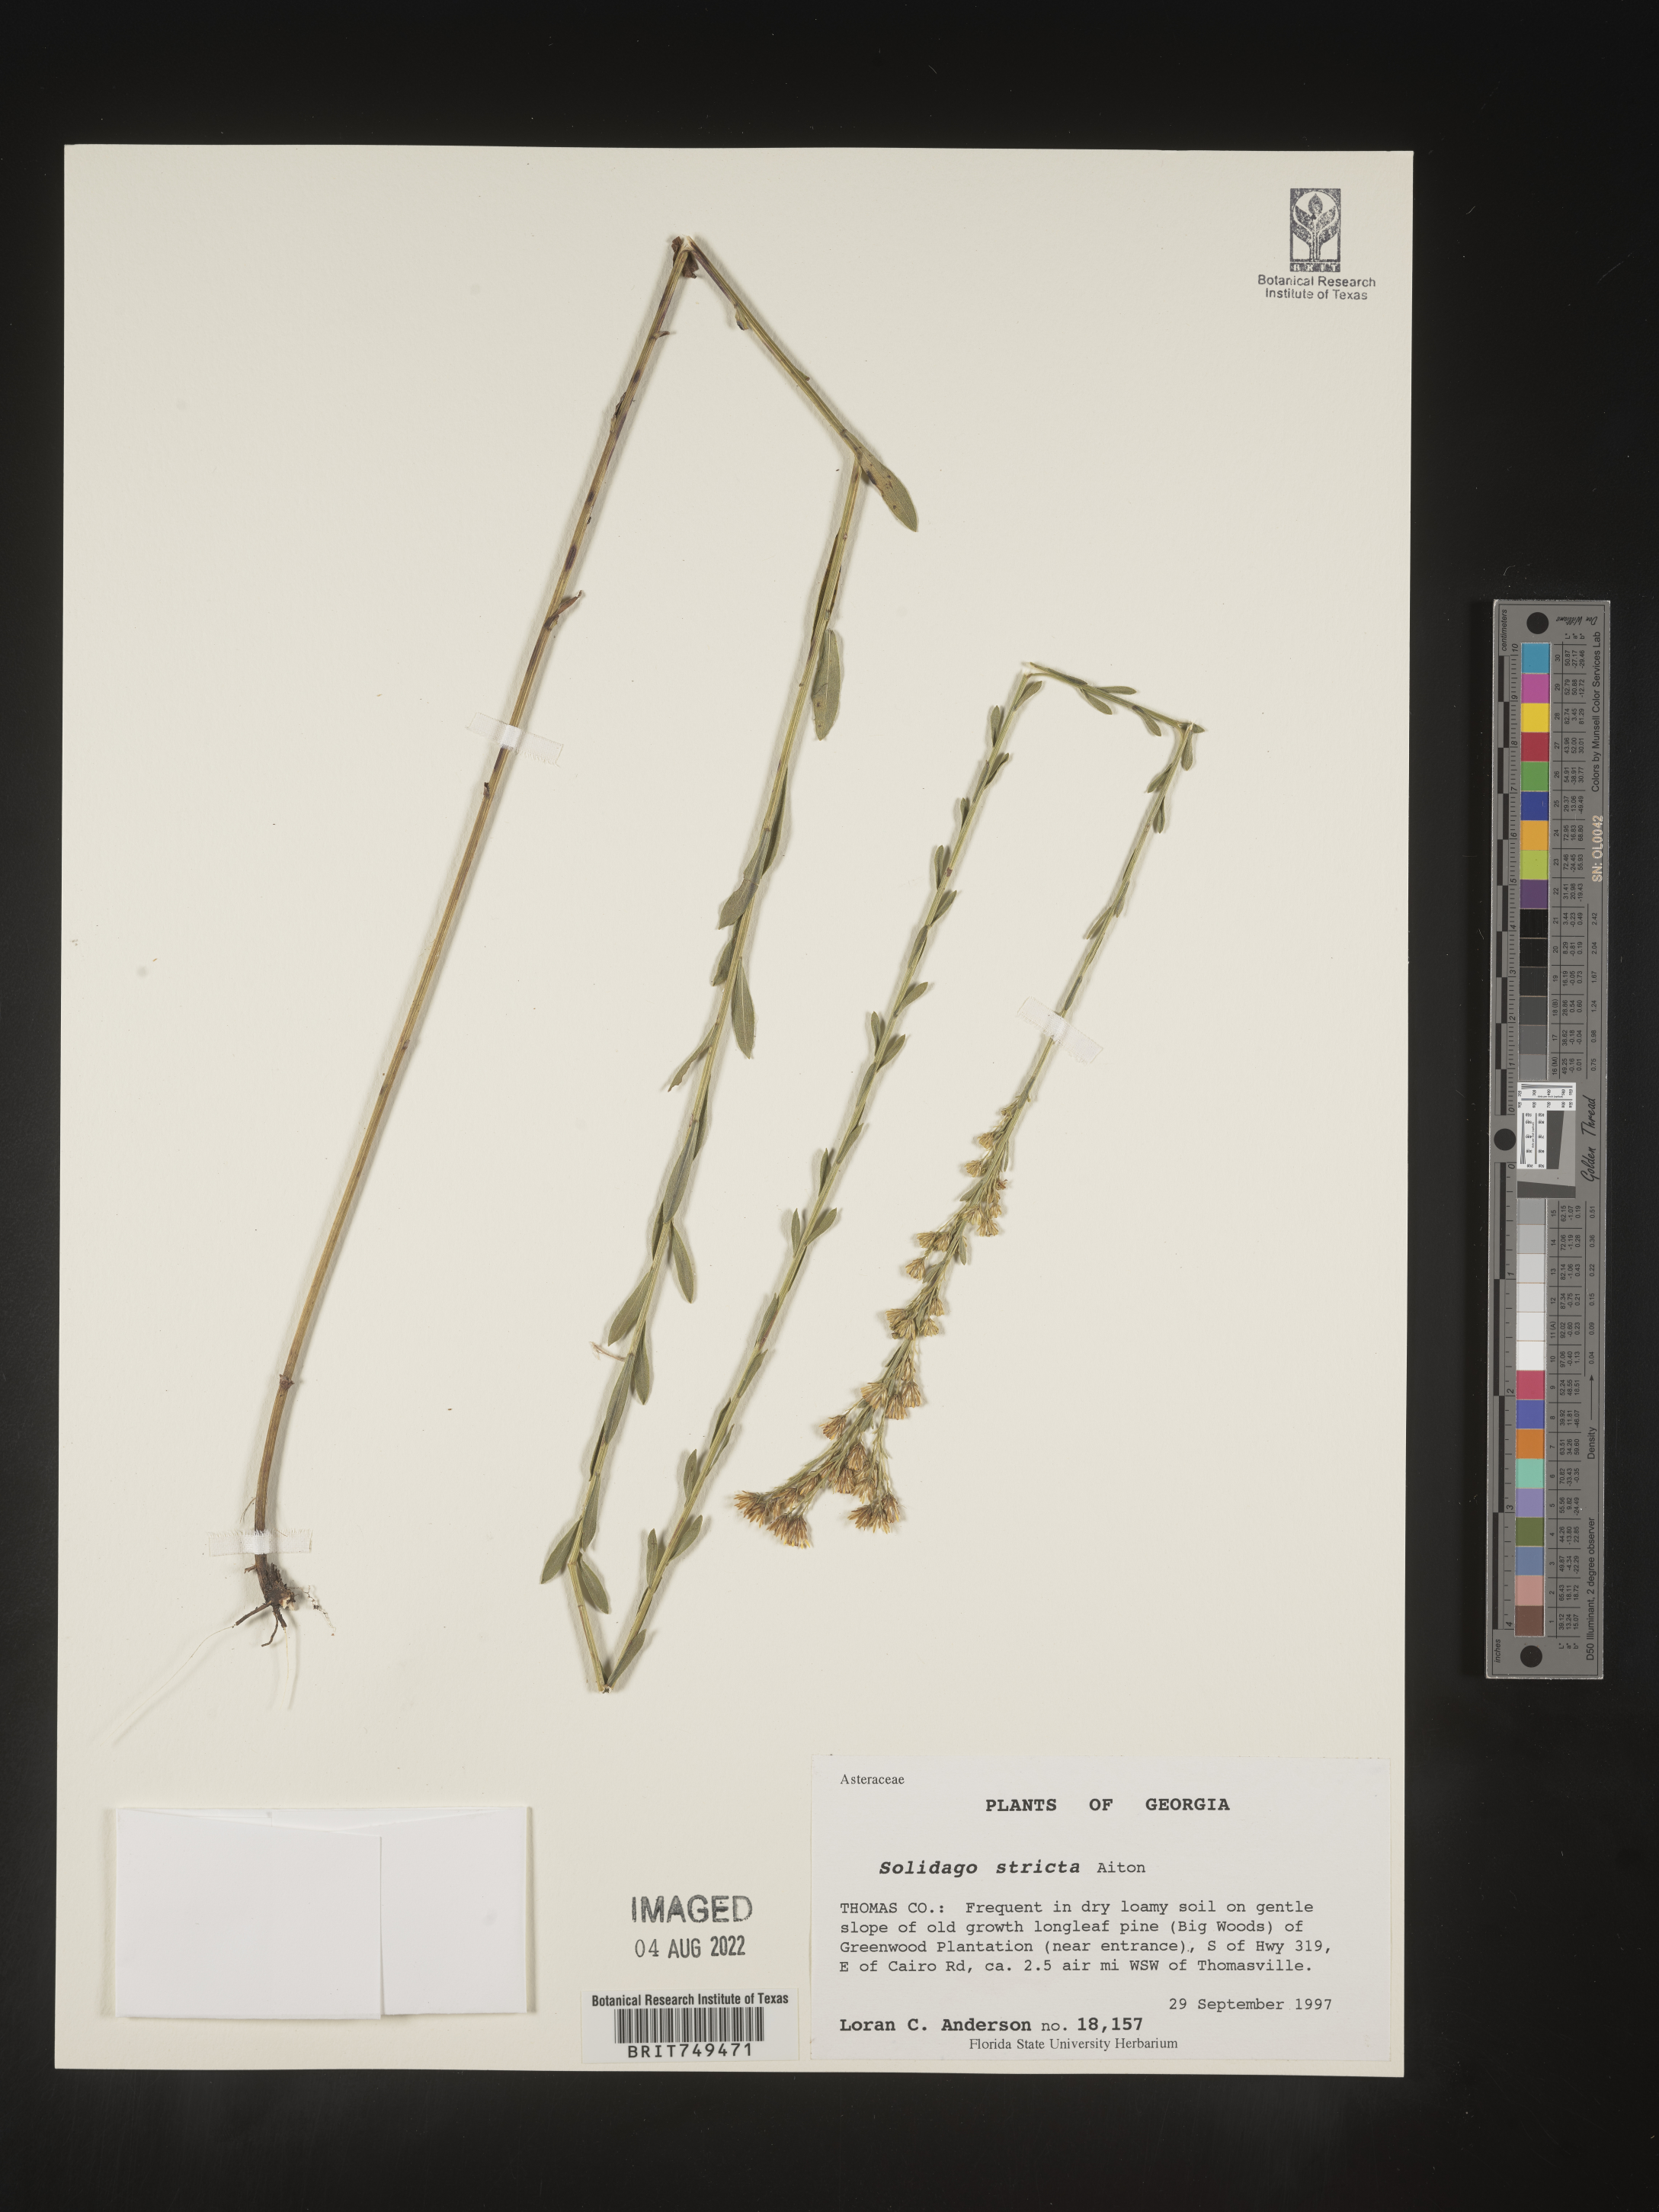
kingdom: Plantae
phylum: Tracheophyta
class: Magnoliopsida
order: Asterales
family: Asteraceae
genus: Solidago
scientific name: Solidago stricta
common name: Pine barren bog goldenrod
